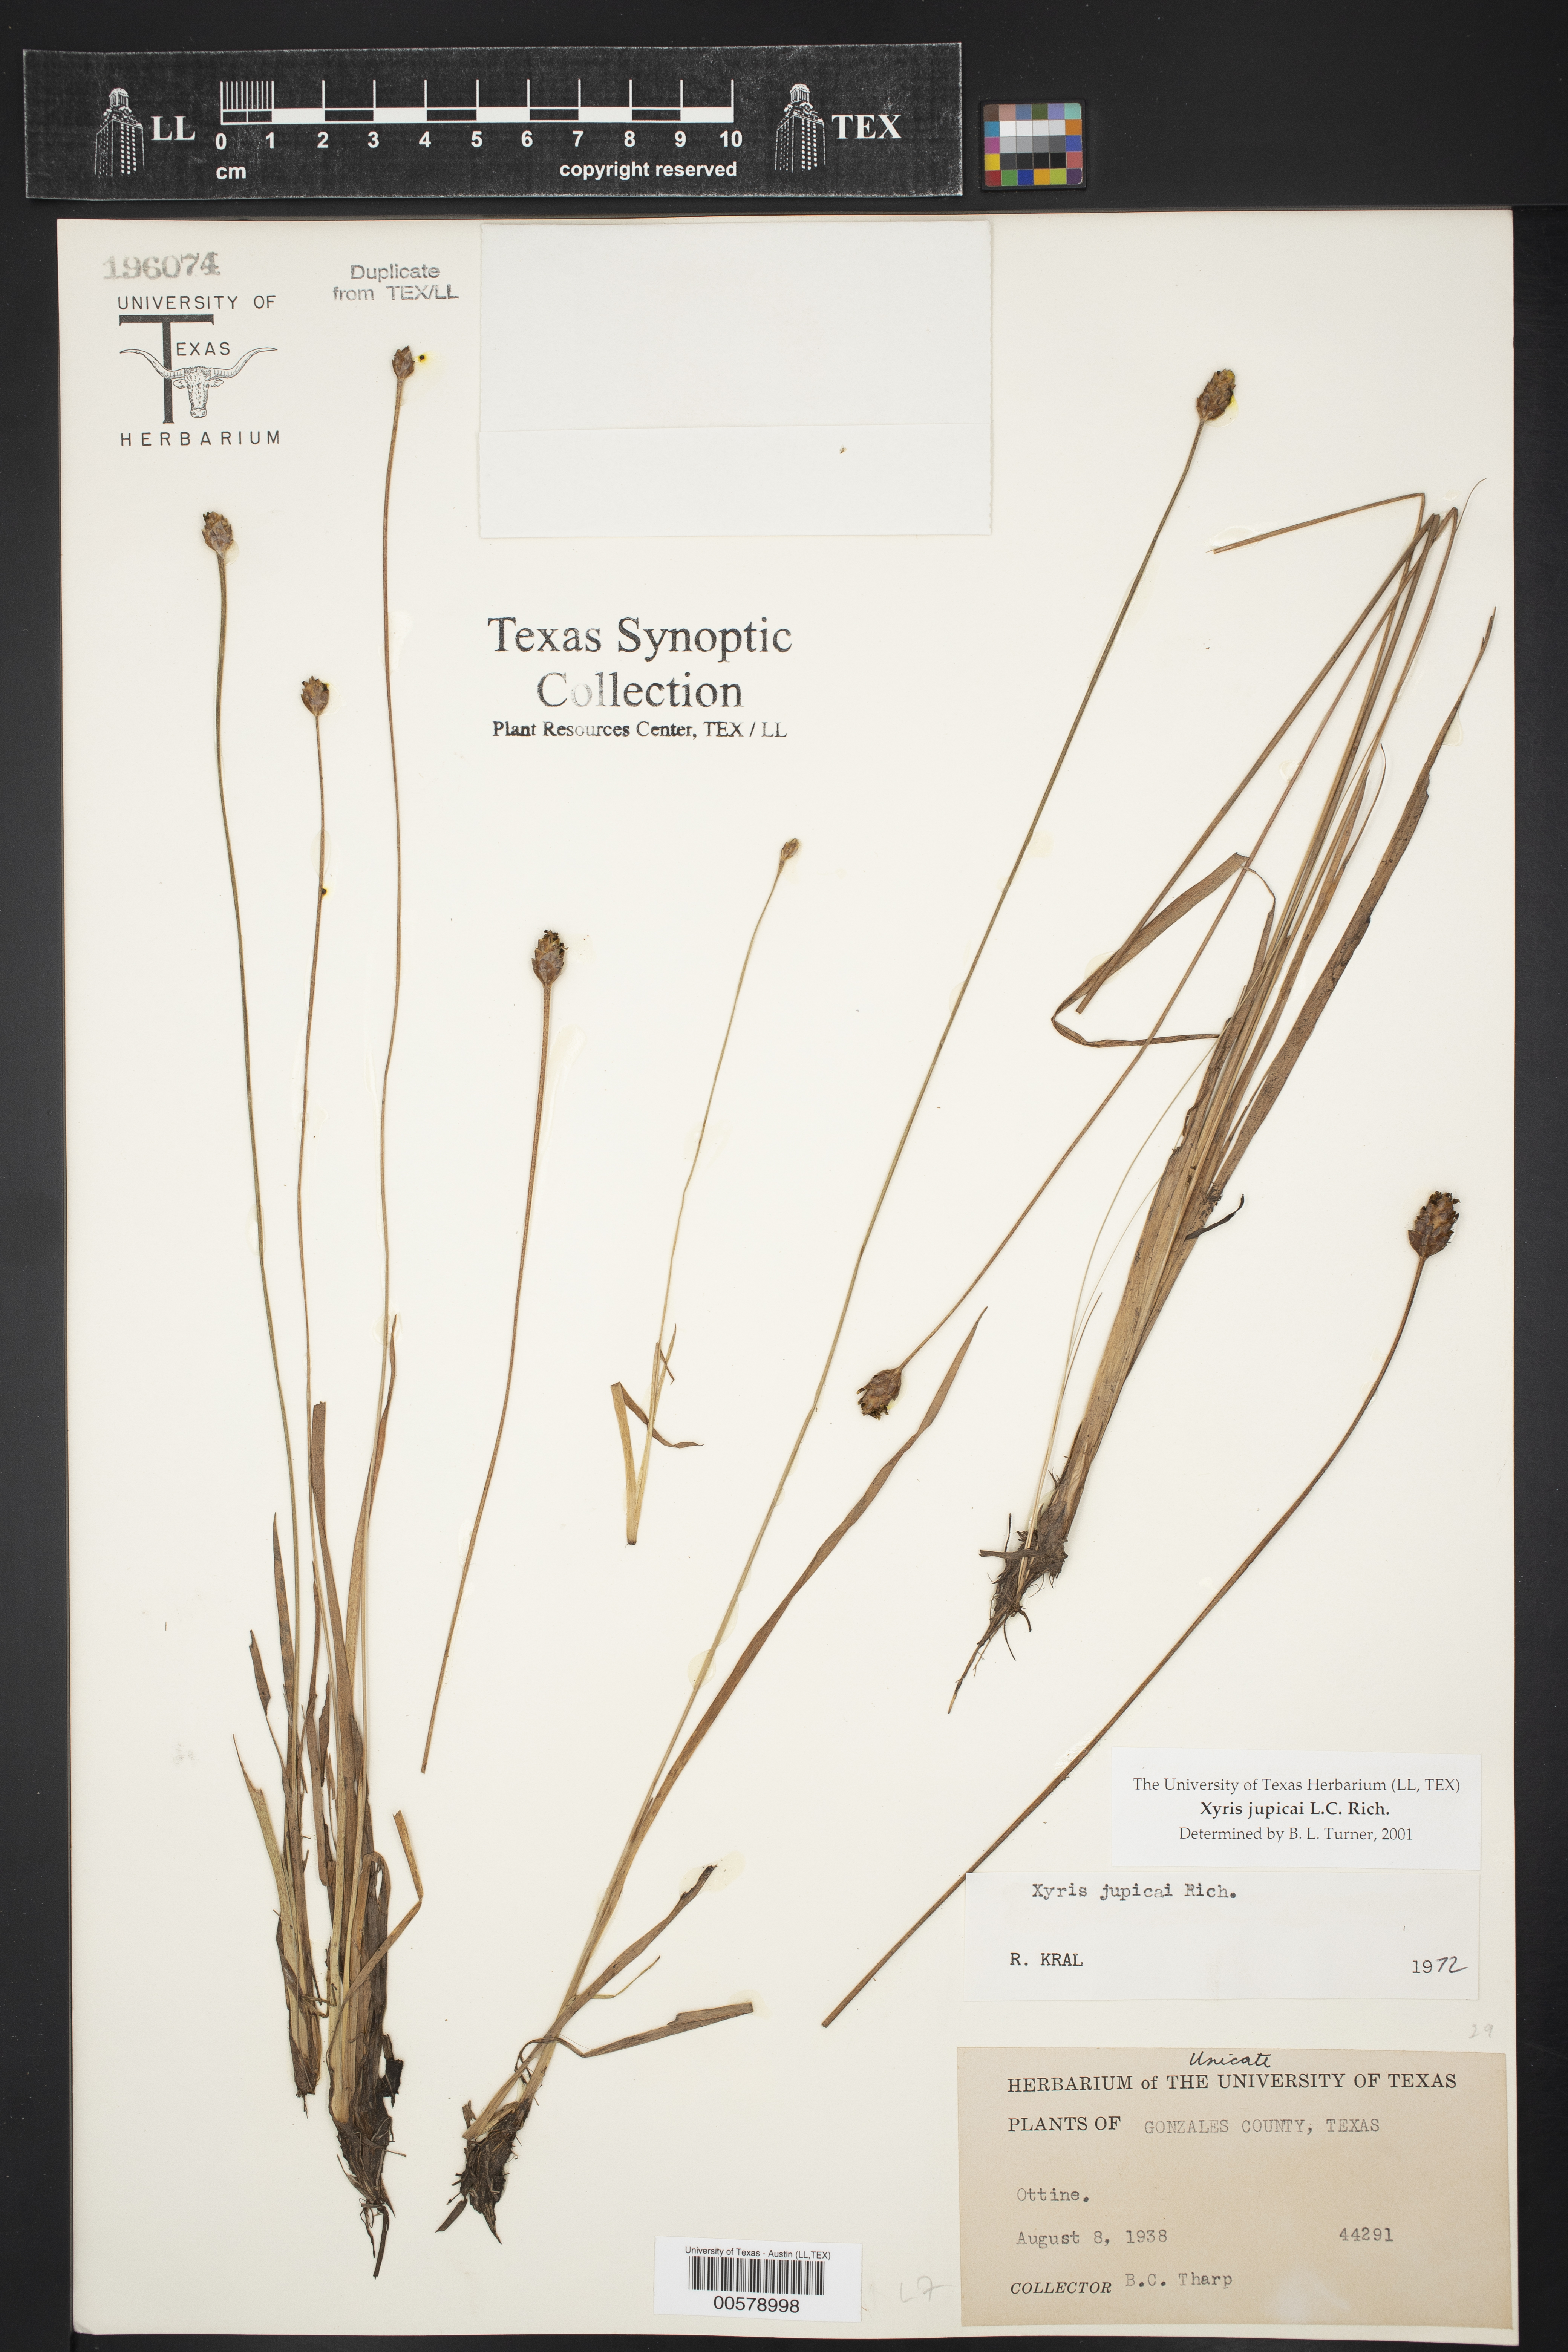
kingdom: Plantae
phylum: Tracheophyta
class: Liliopsida
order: Poales
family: Xyridaceae
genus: Xyris
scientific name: Xyris jupicai
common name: Richard's yelloweyed grass
